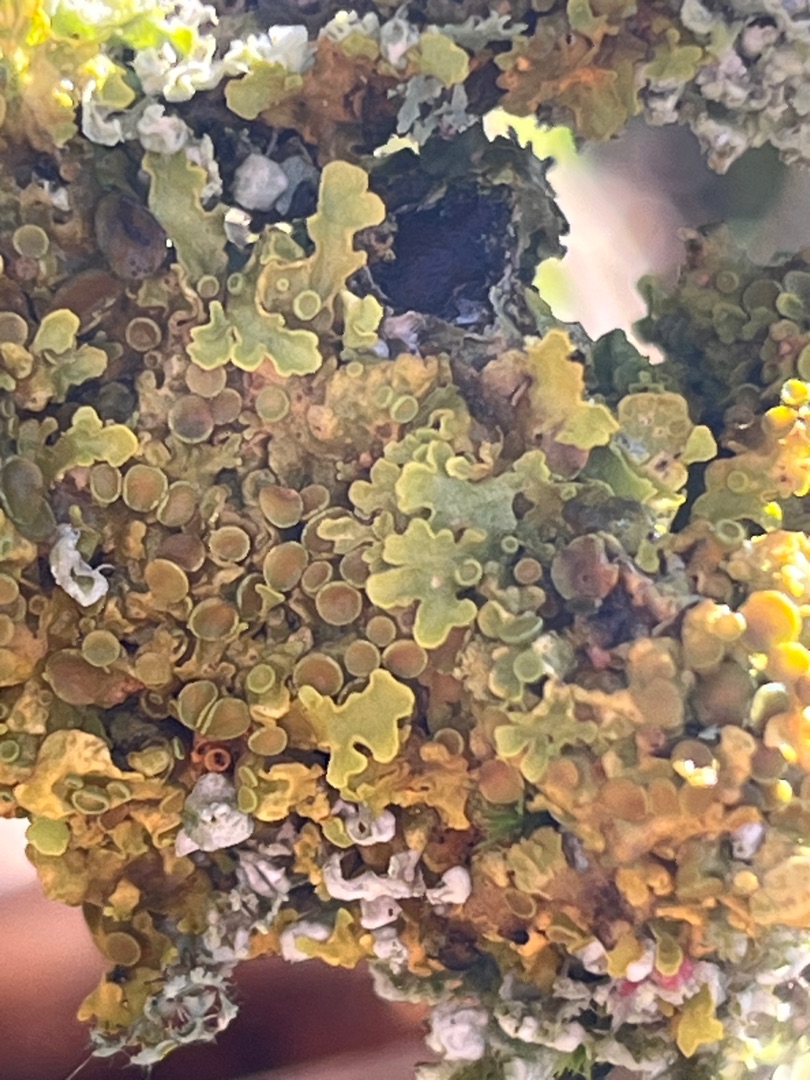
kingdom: Fungi
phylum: Ascomycota
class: Lecanoromycetes
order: Teloschistales
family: Teloschistaceae
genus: Xanthoria
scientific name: Xanthoria parietina
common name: Almindelig væggelav
